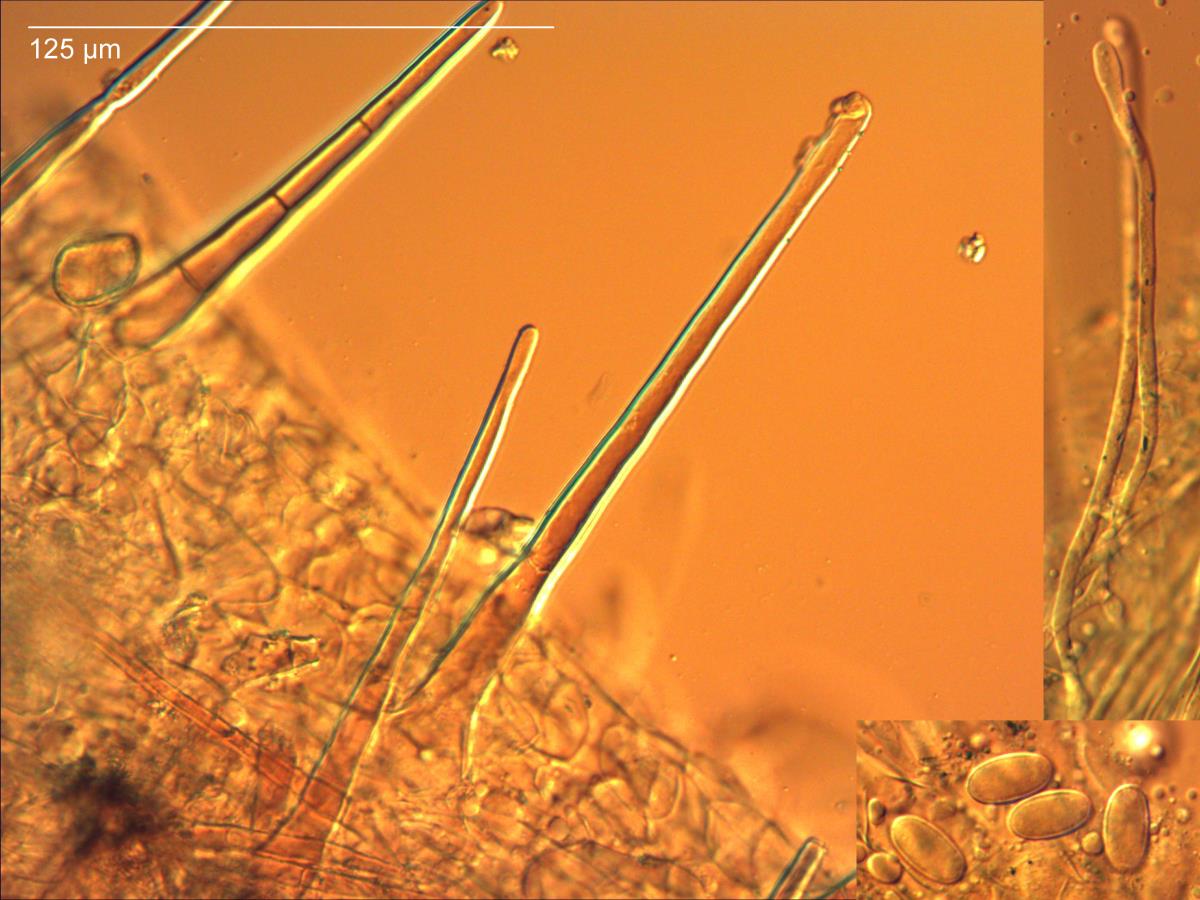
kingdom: Fungi
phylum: Ascomycota
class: Pezizomycetes
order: Pezizales
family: Pyronemataceae
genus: Cheilymenia
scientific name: Cheilymenia raripila
